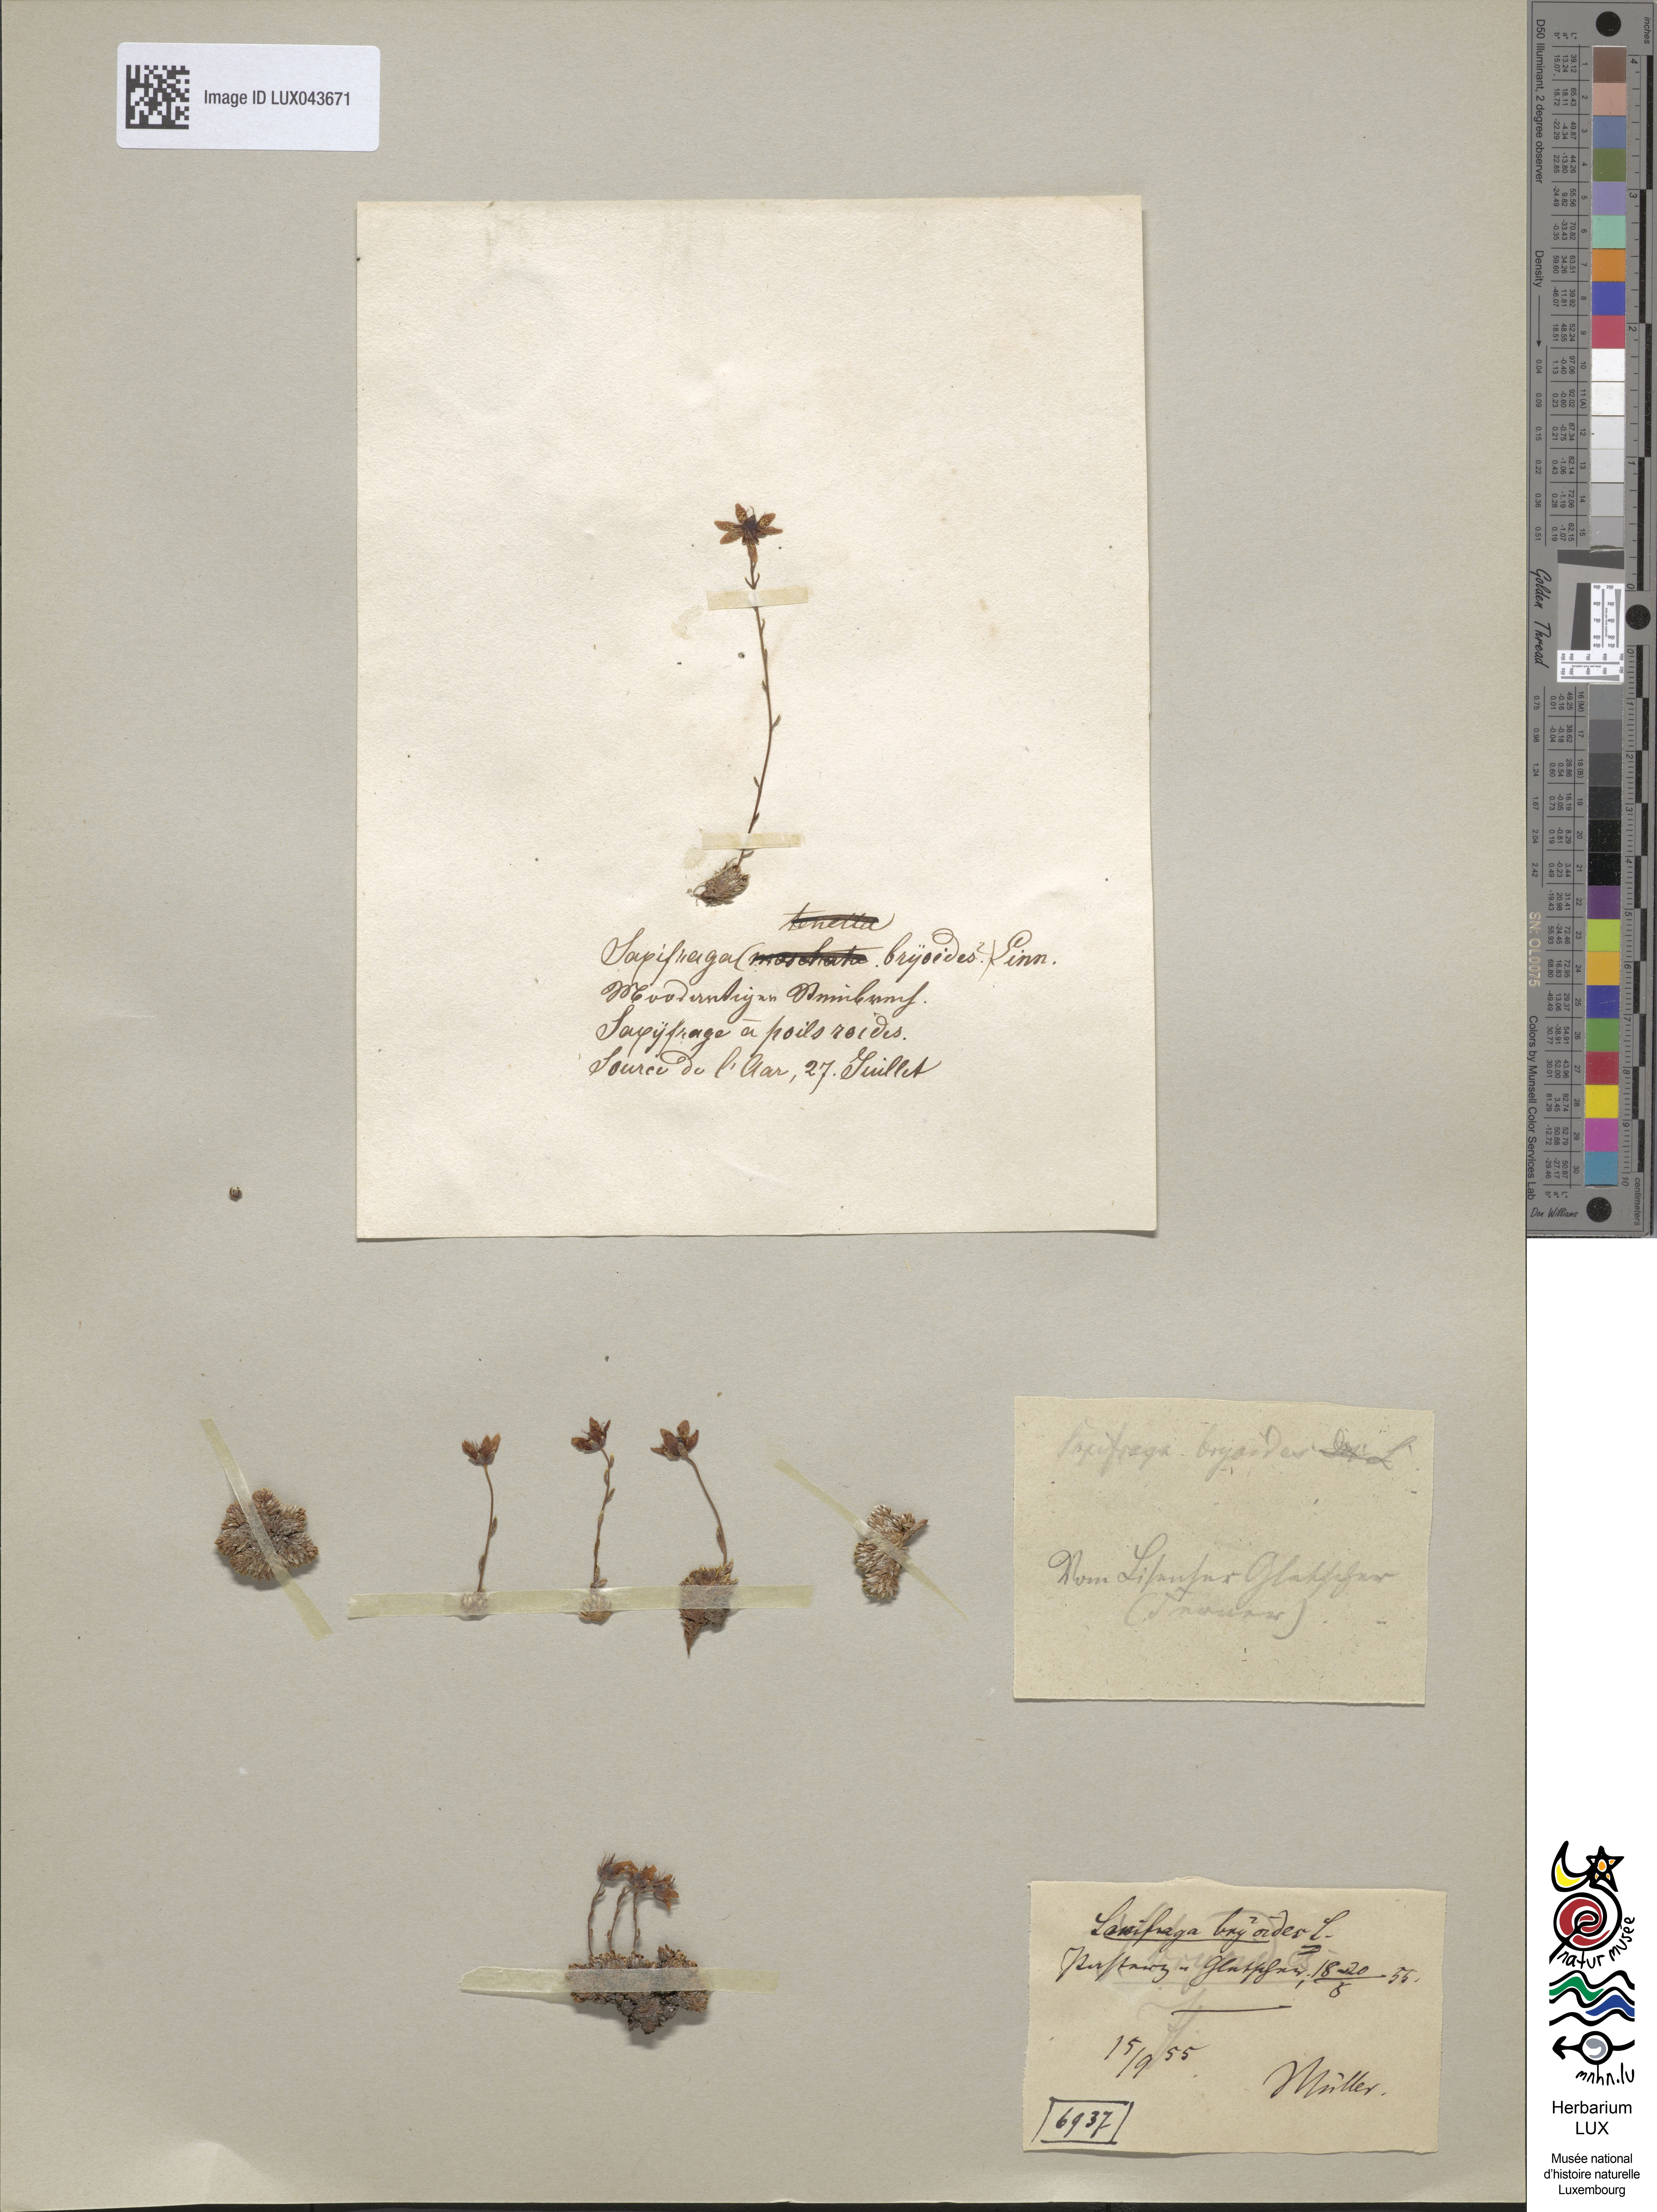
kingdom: Plantae
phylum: Tracheophyta
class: Magnoliopsida
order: Saxifragales
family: Saxifragaceae
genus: Saxifraga
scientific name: Saxifraga bryoides
